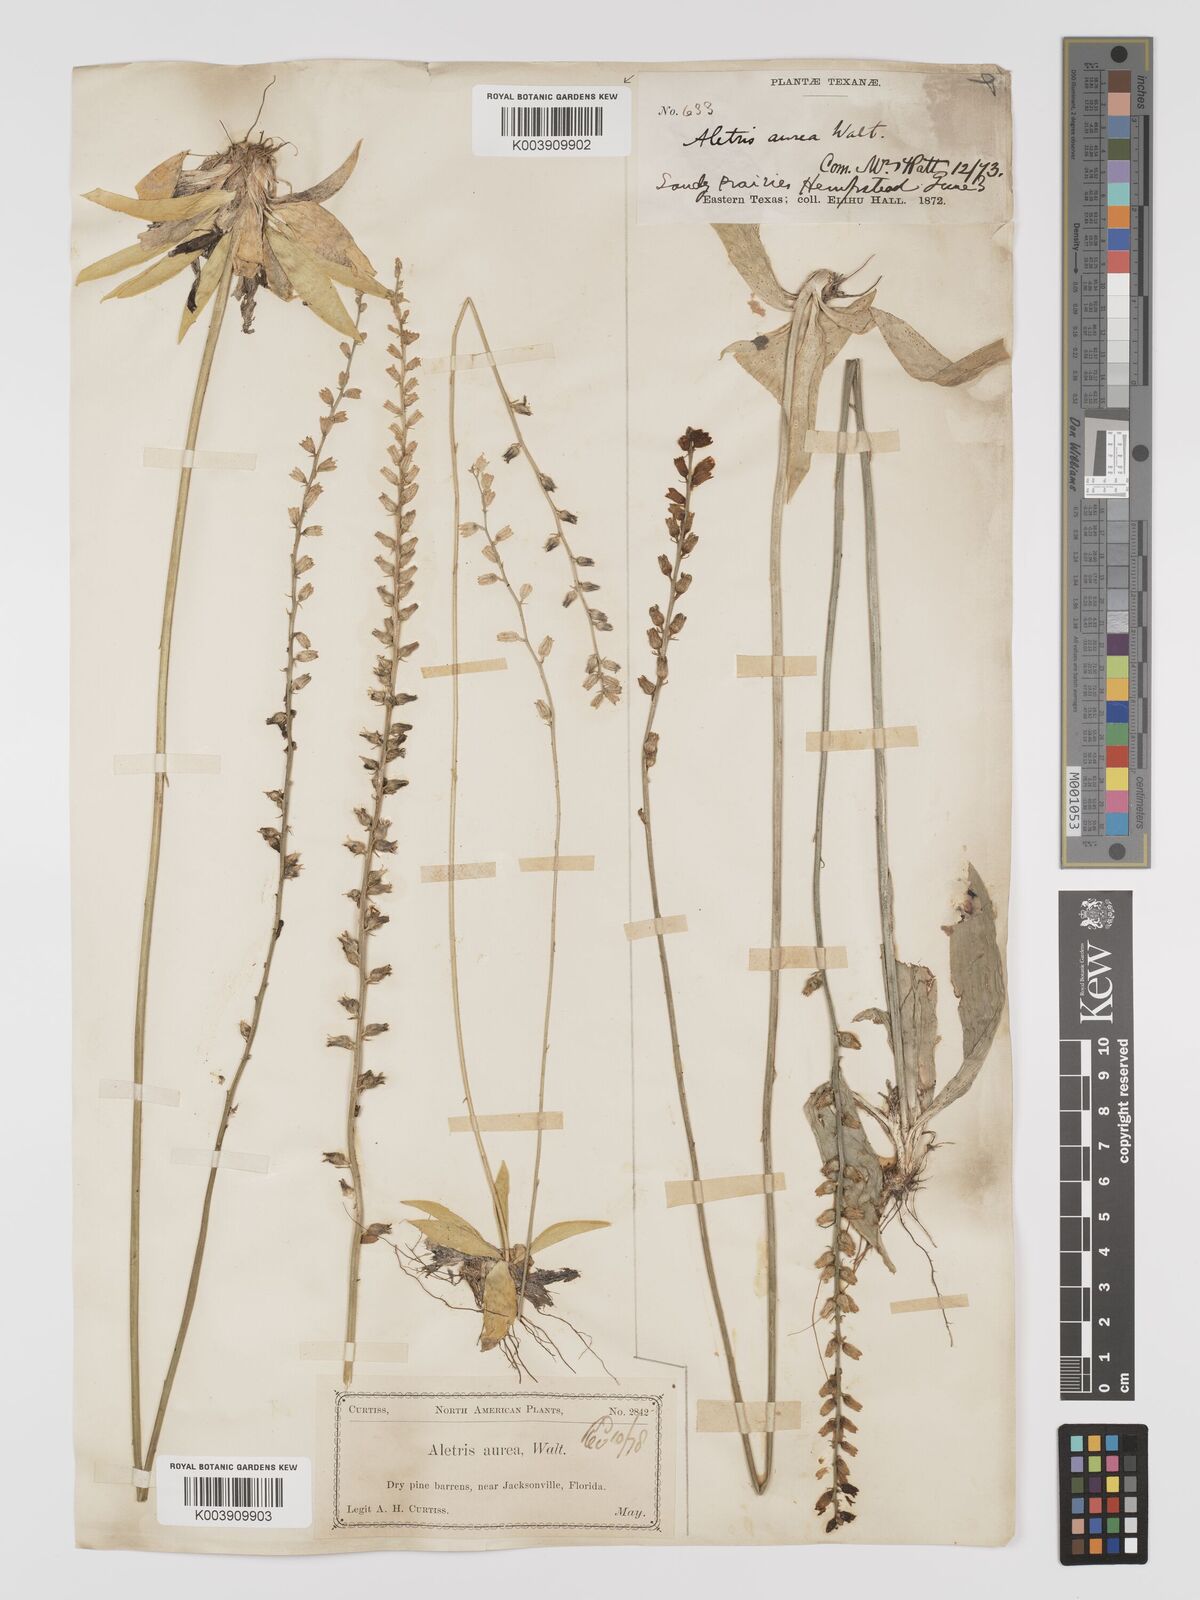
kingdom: Plantae
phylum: Tracheophyta
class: Liliopsida
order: Dioscoreales
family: Nartheciaceae
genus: Aletris
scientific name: Aletris aurea
